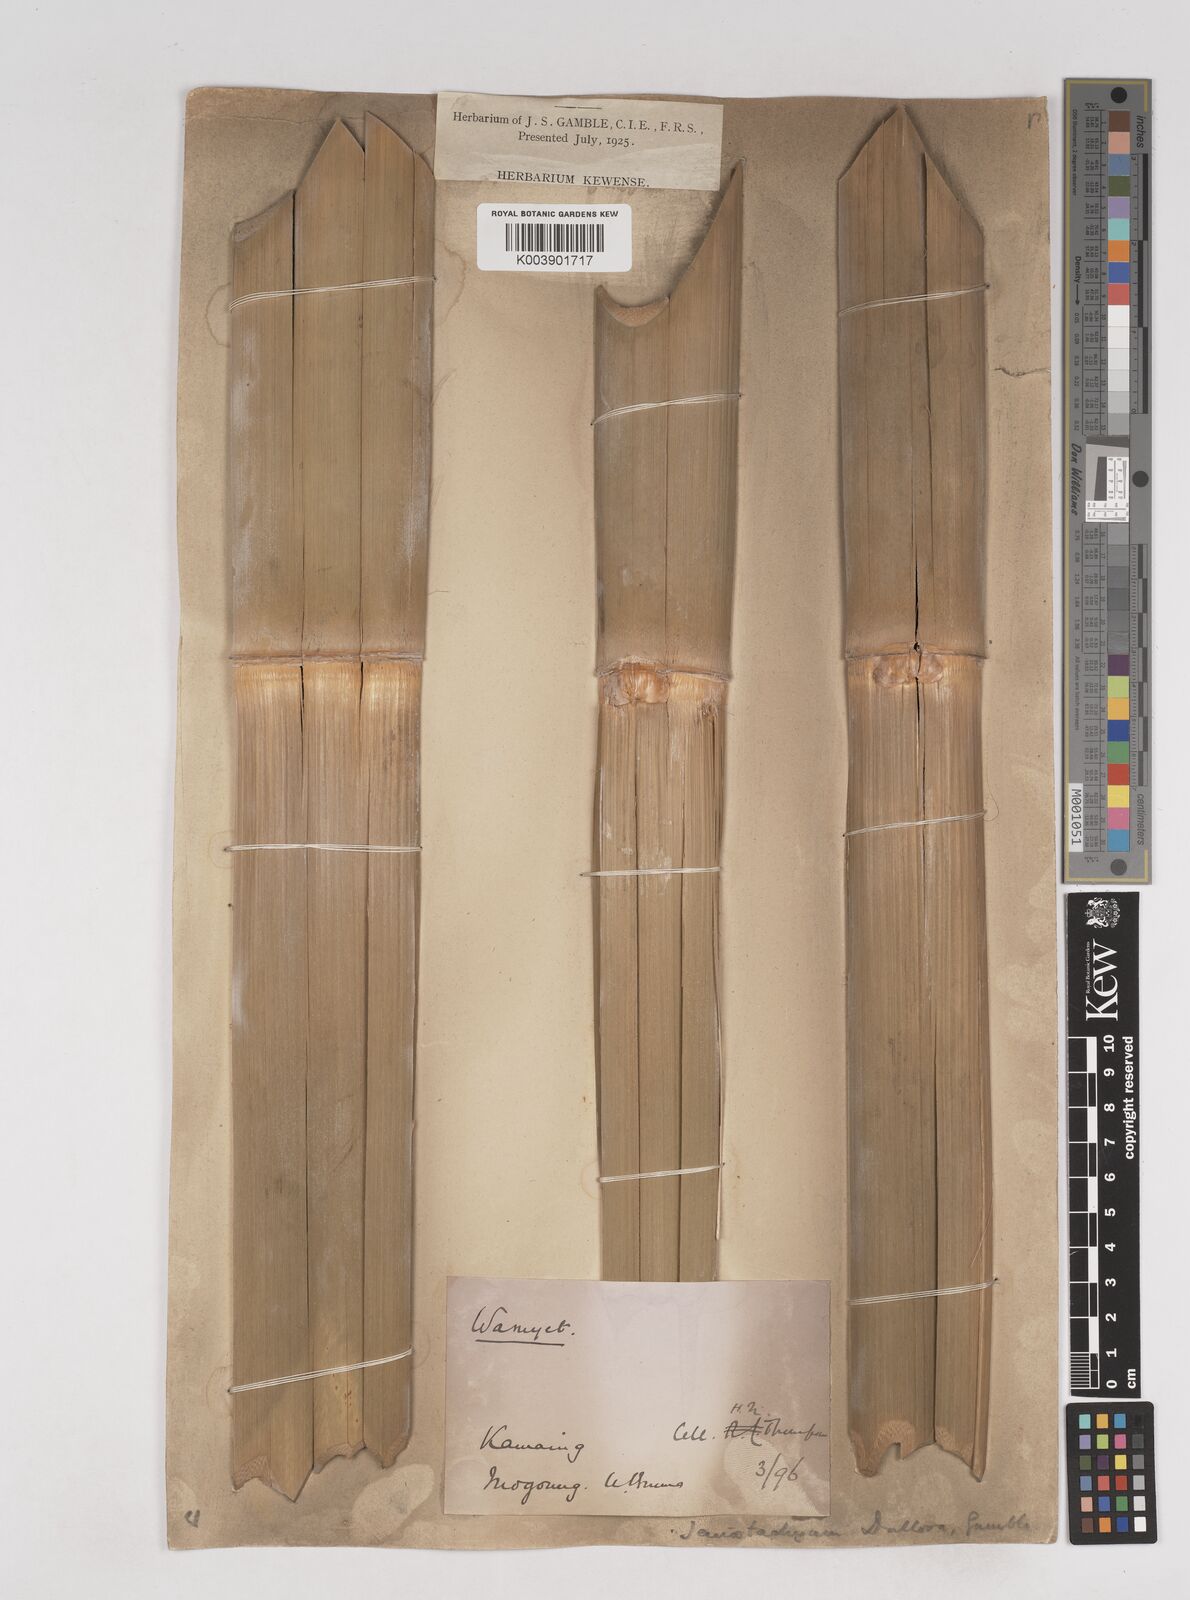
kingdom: Plantae
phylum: Tracheophyta
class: Liliopsida
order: Poales
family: Poaceae
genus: Schizostachyum
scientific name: Schizostachyum dullooa
